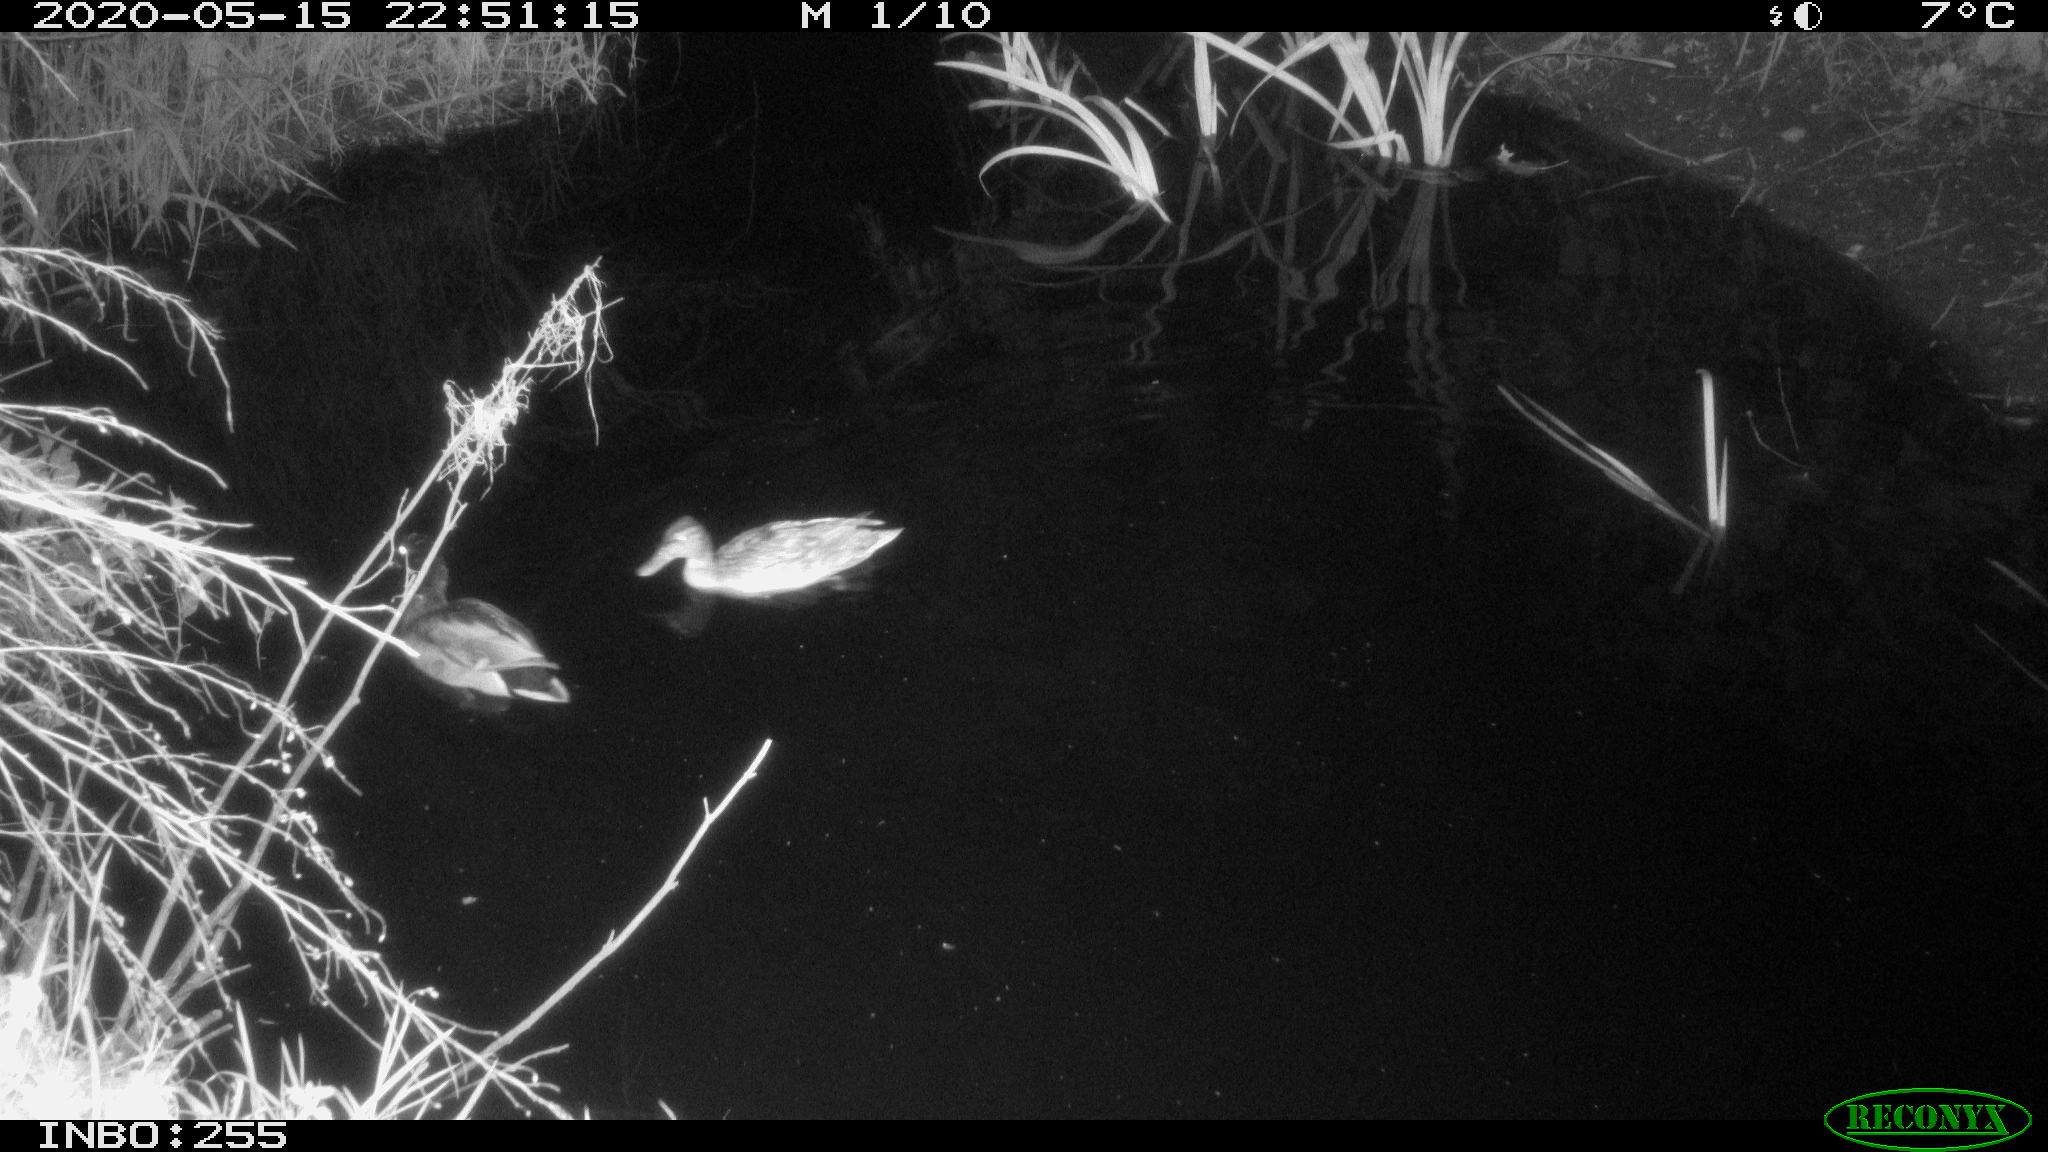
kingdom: Animalia
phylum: Chordata
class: Aves
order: Anseriformes
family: Anatidae
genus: Anas
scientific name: Anas platyrhynchos
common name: Mallard
